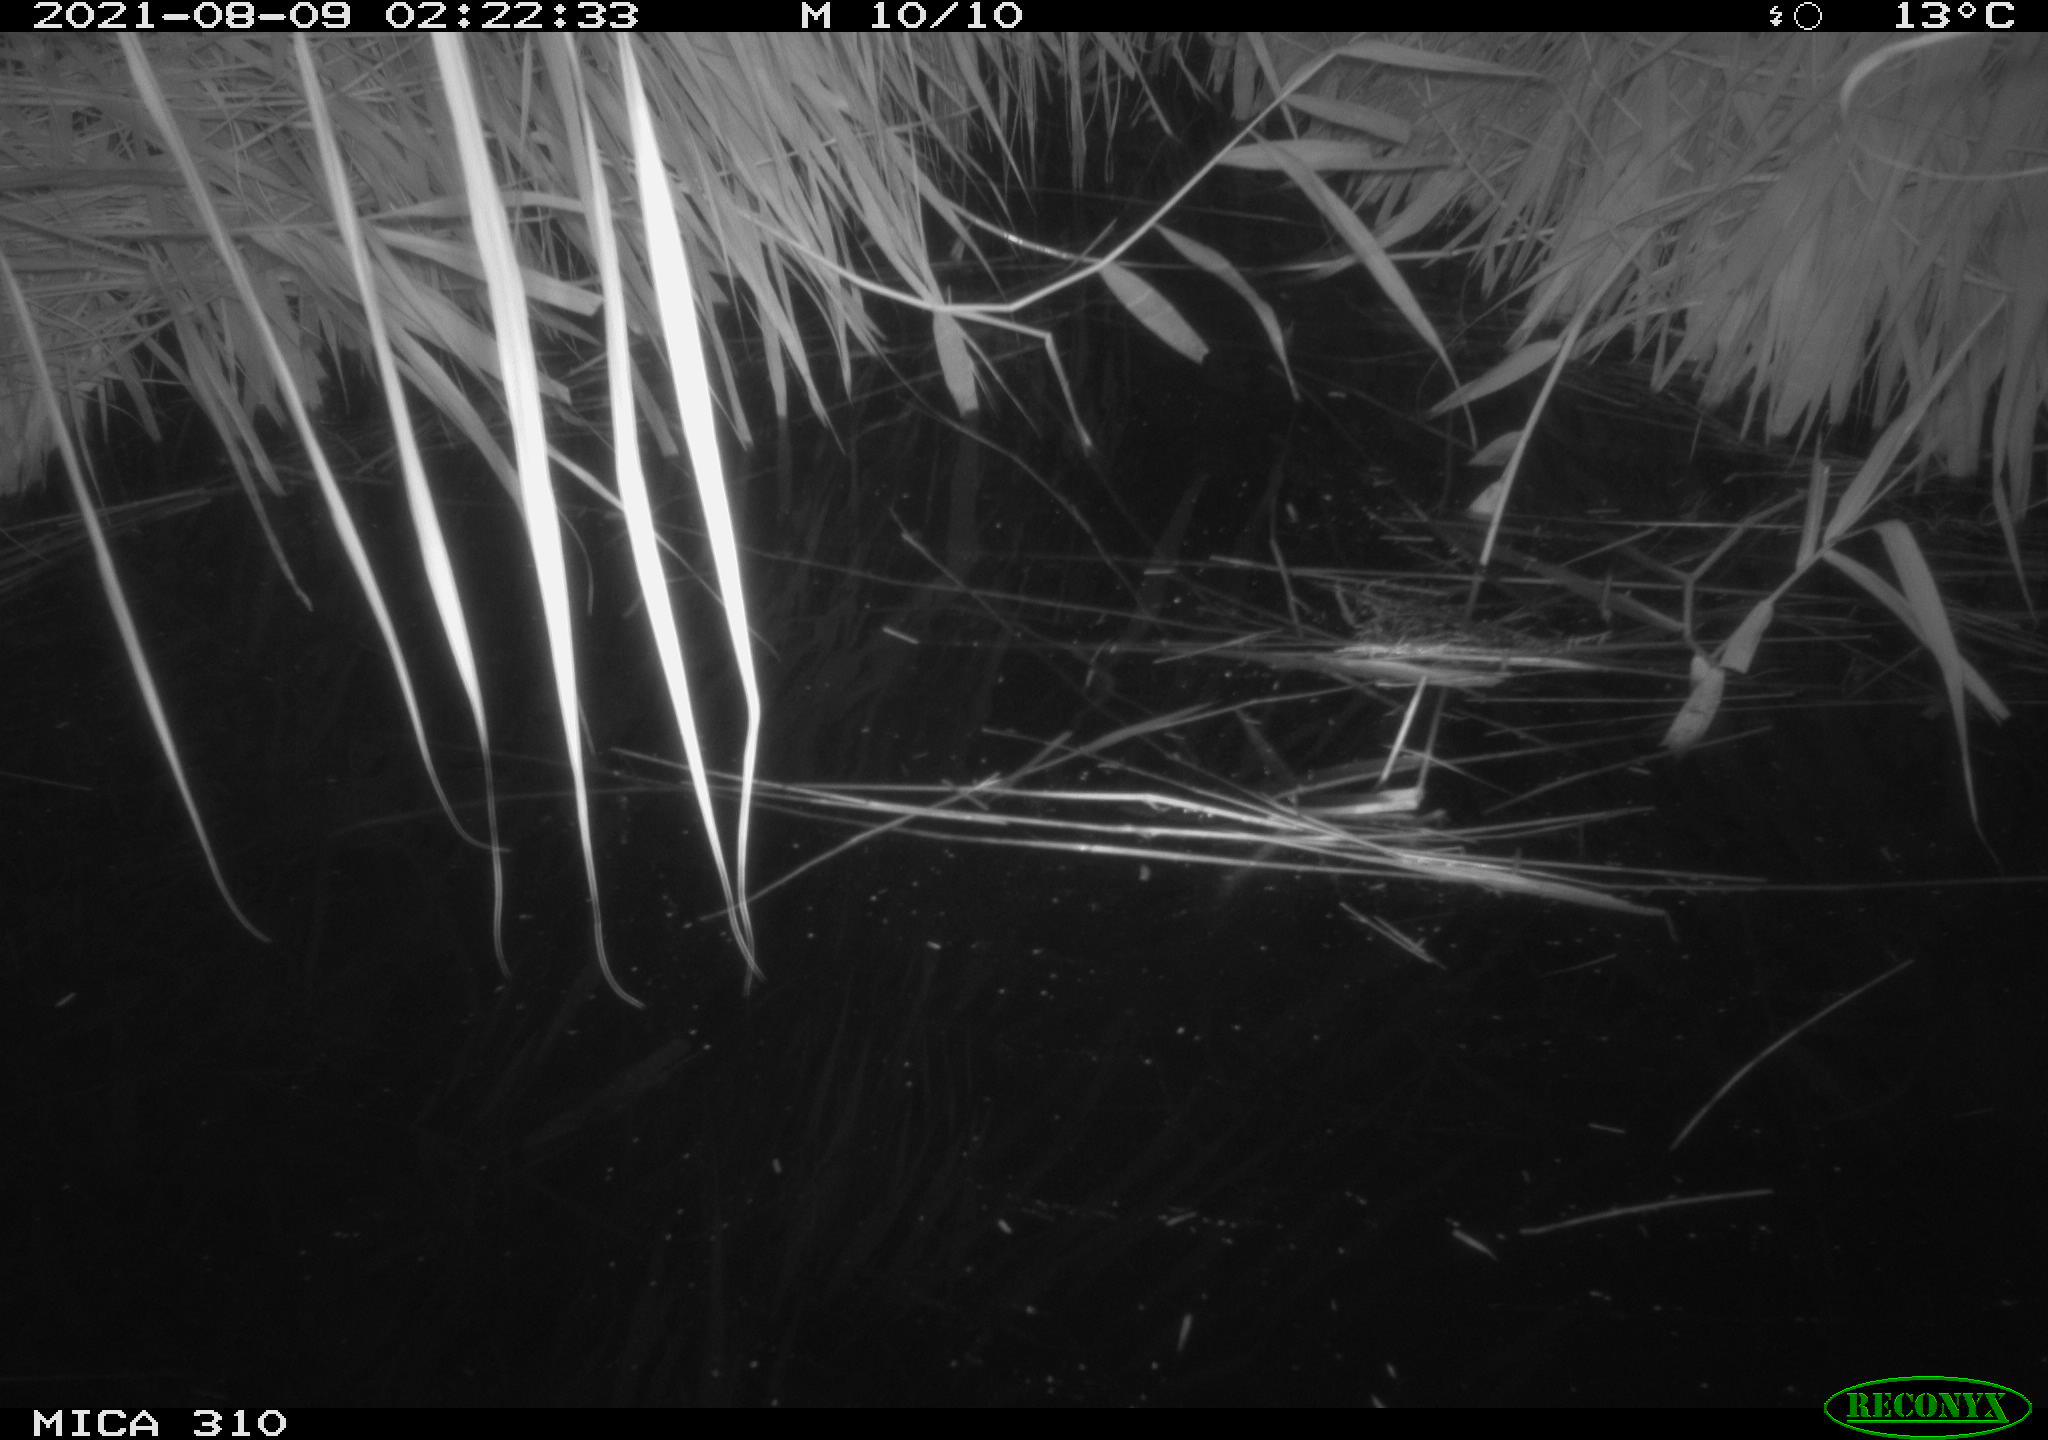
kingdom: Animalia
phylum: Chordata
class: Aves
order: Anseriformes
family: Anatidae
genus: Anas
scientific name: Anas platyrhynchos
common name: Mallard
